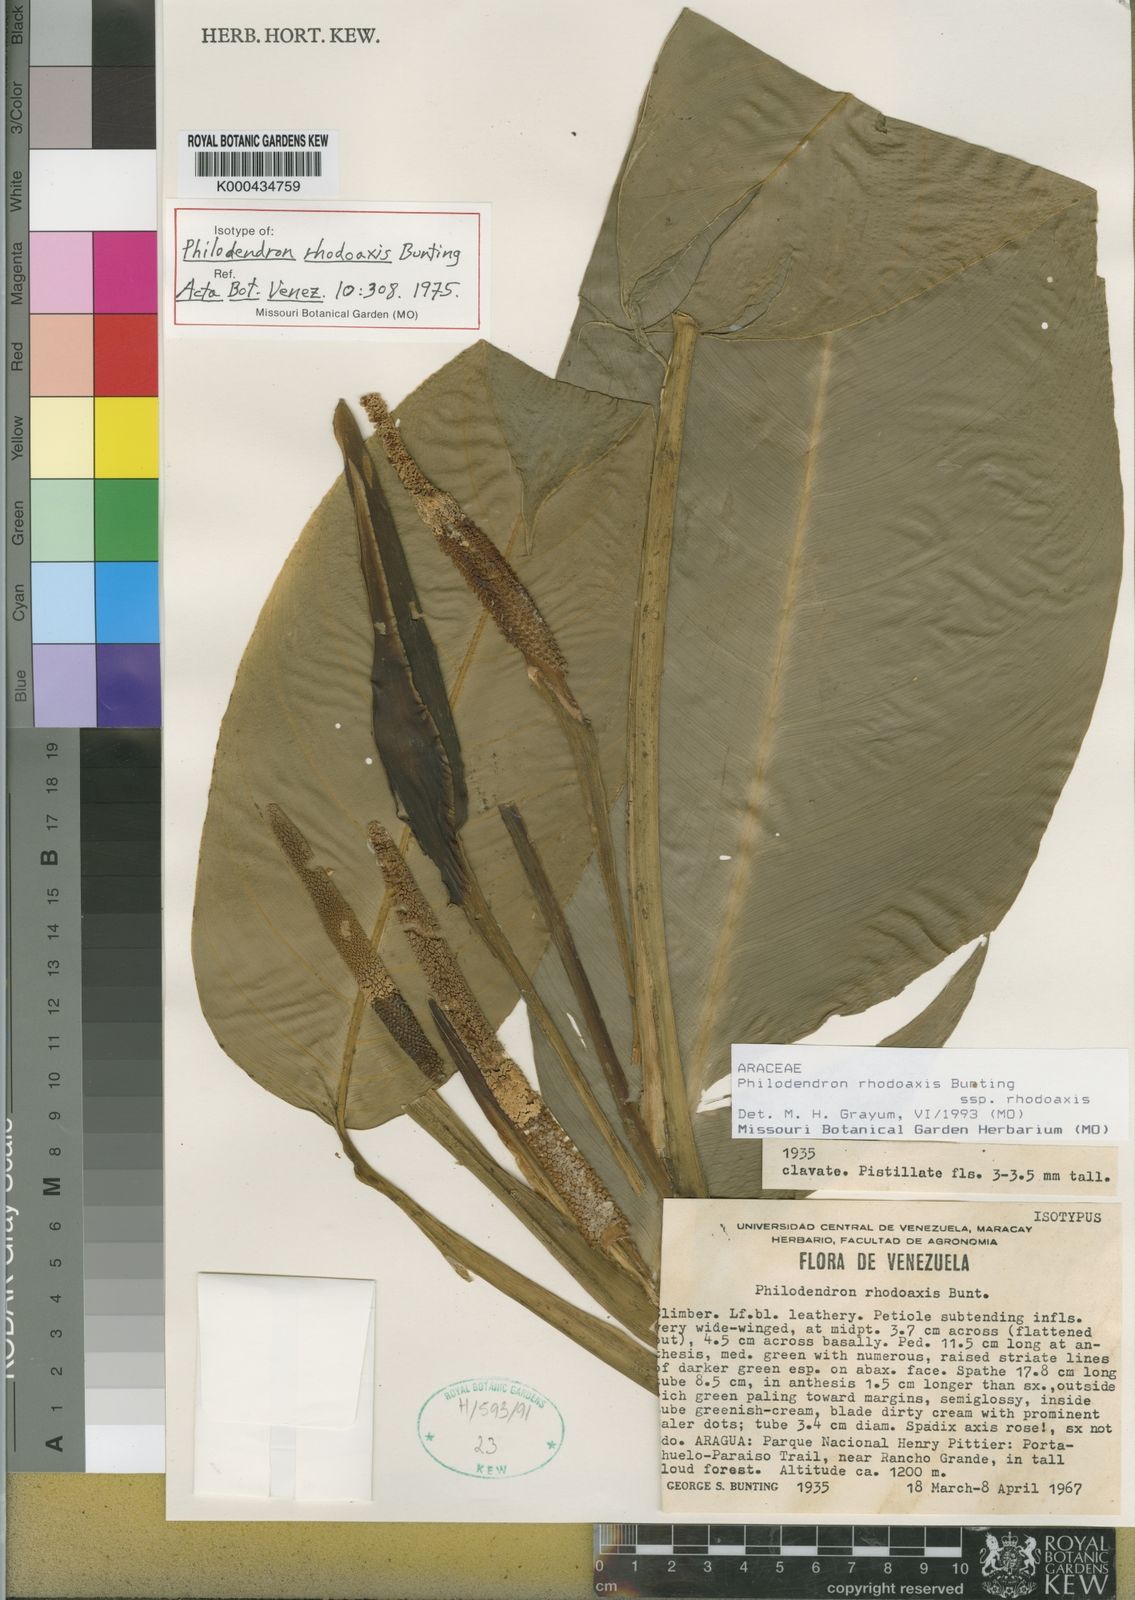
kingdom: Plantae
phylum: Tracheophyta
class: Liliopsida
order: Alismatales
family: Araceae
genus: Philodendron
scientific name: Philodendron rhodoaxis
